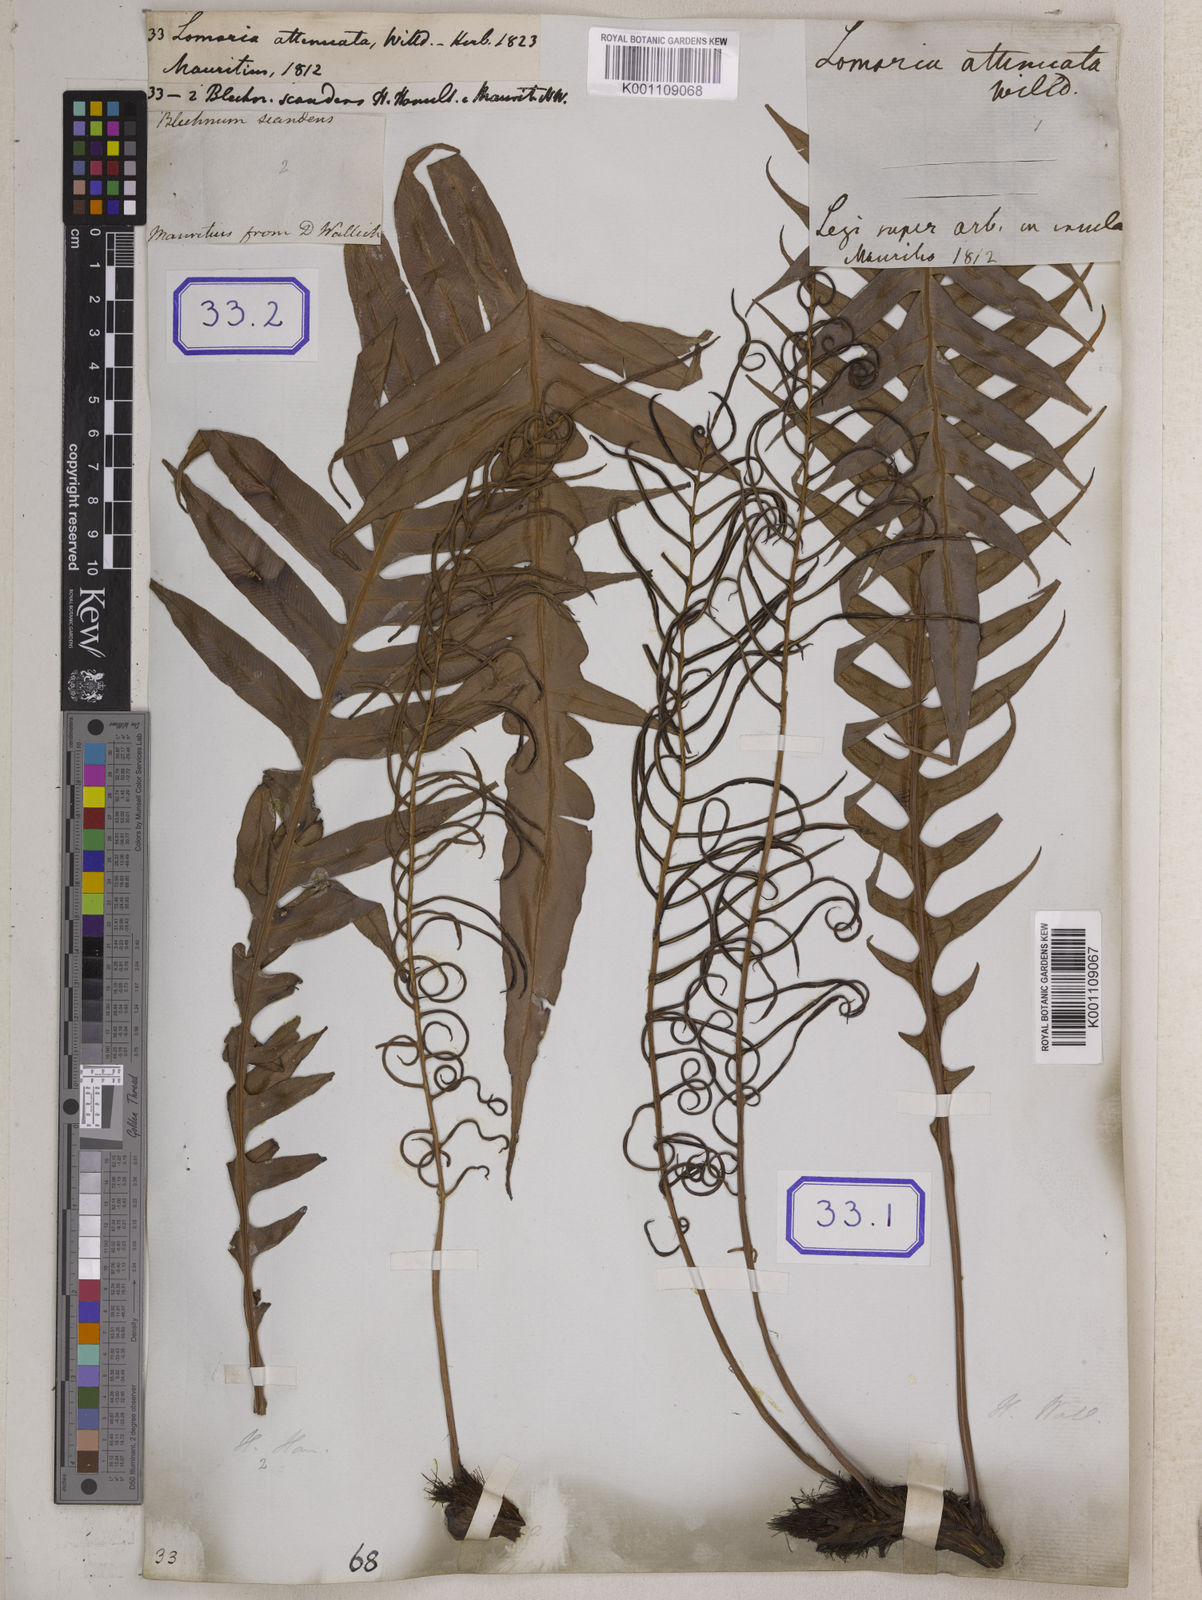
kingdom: Plantae
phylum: Tracheophyta
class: Polypodiopsida
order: Polypodiales
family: Blechnaceae
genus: Lomaridium
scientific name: Lomaridium attenuatum
